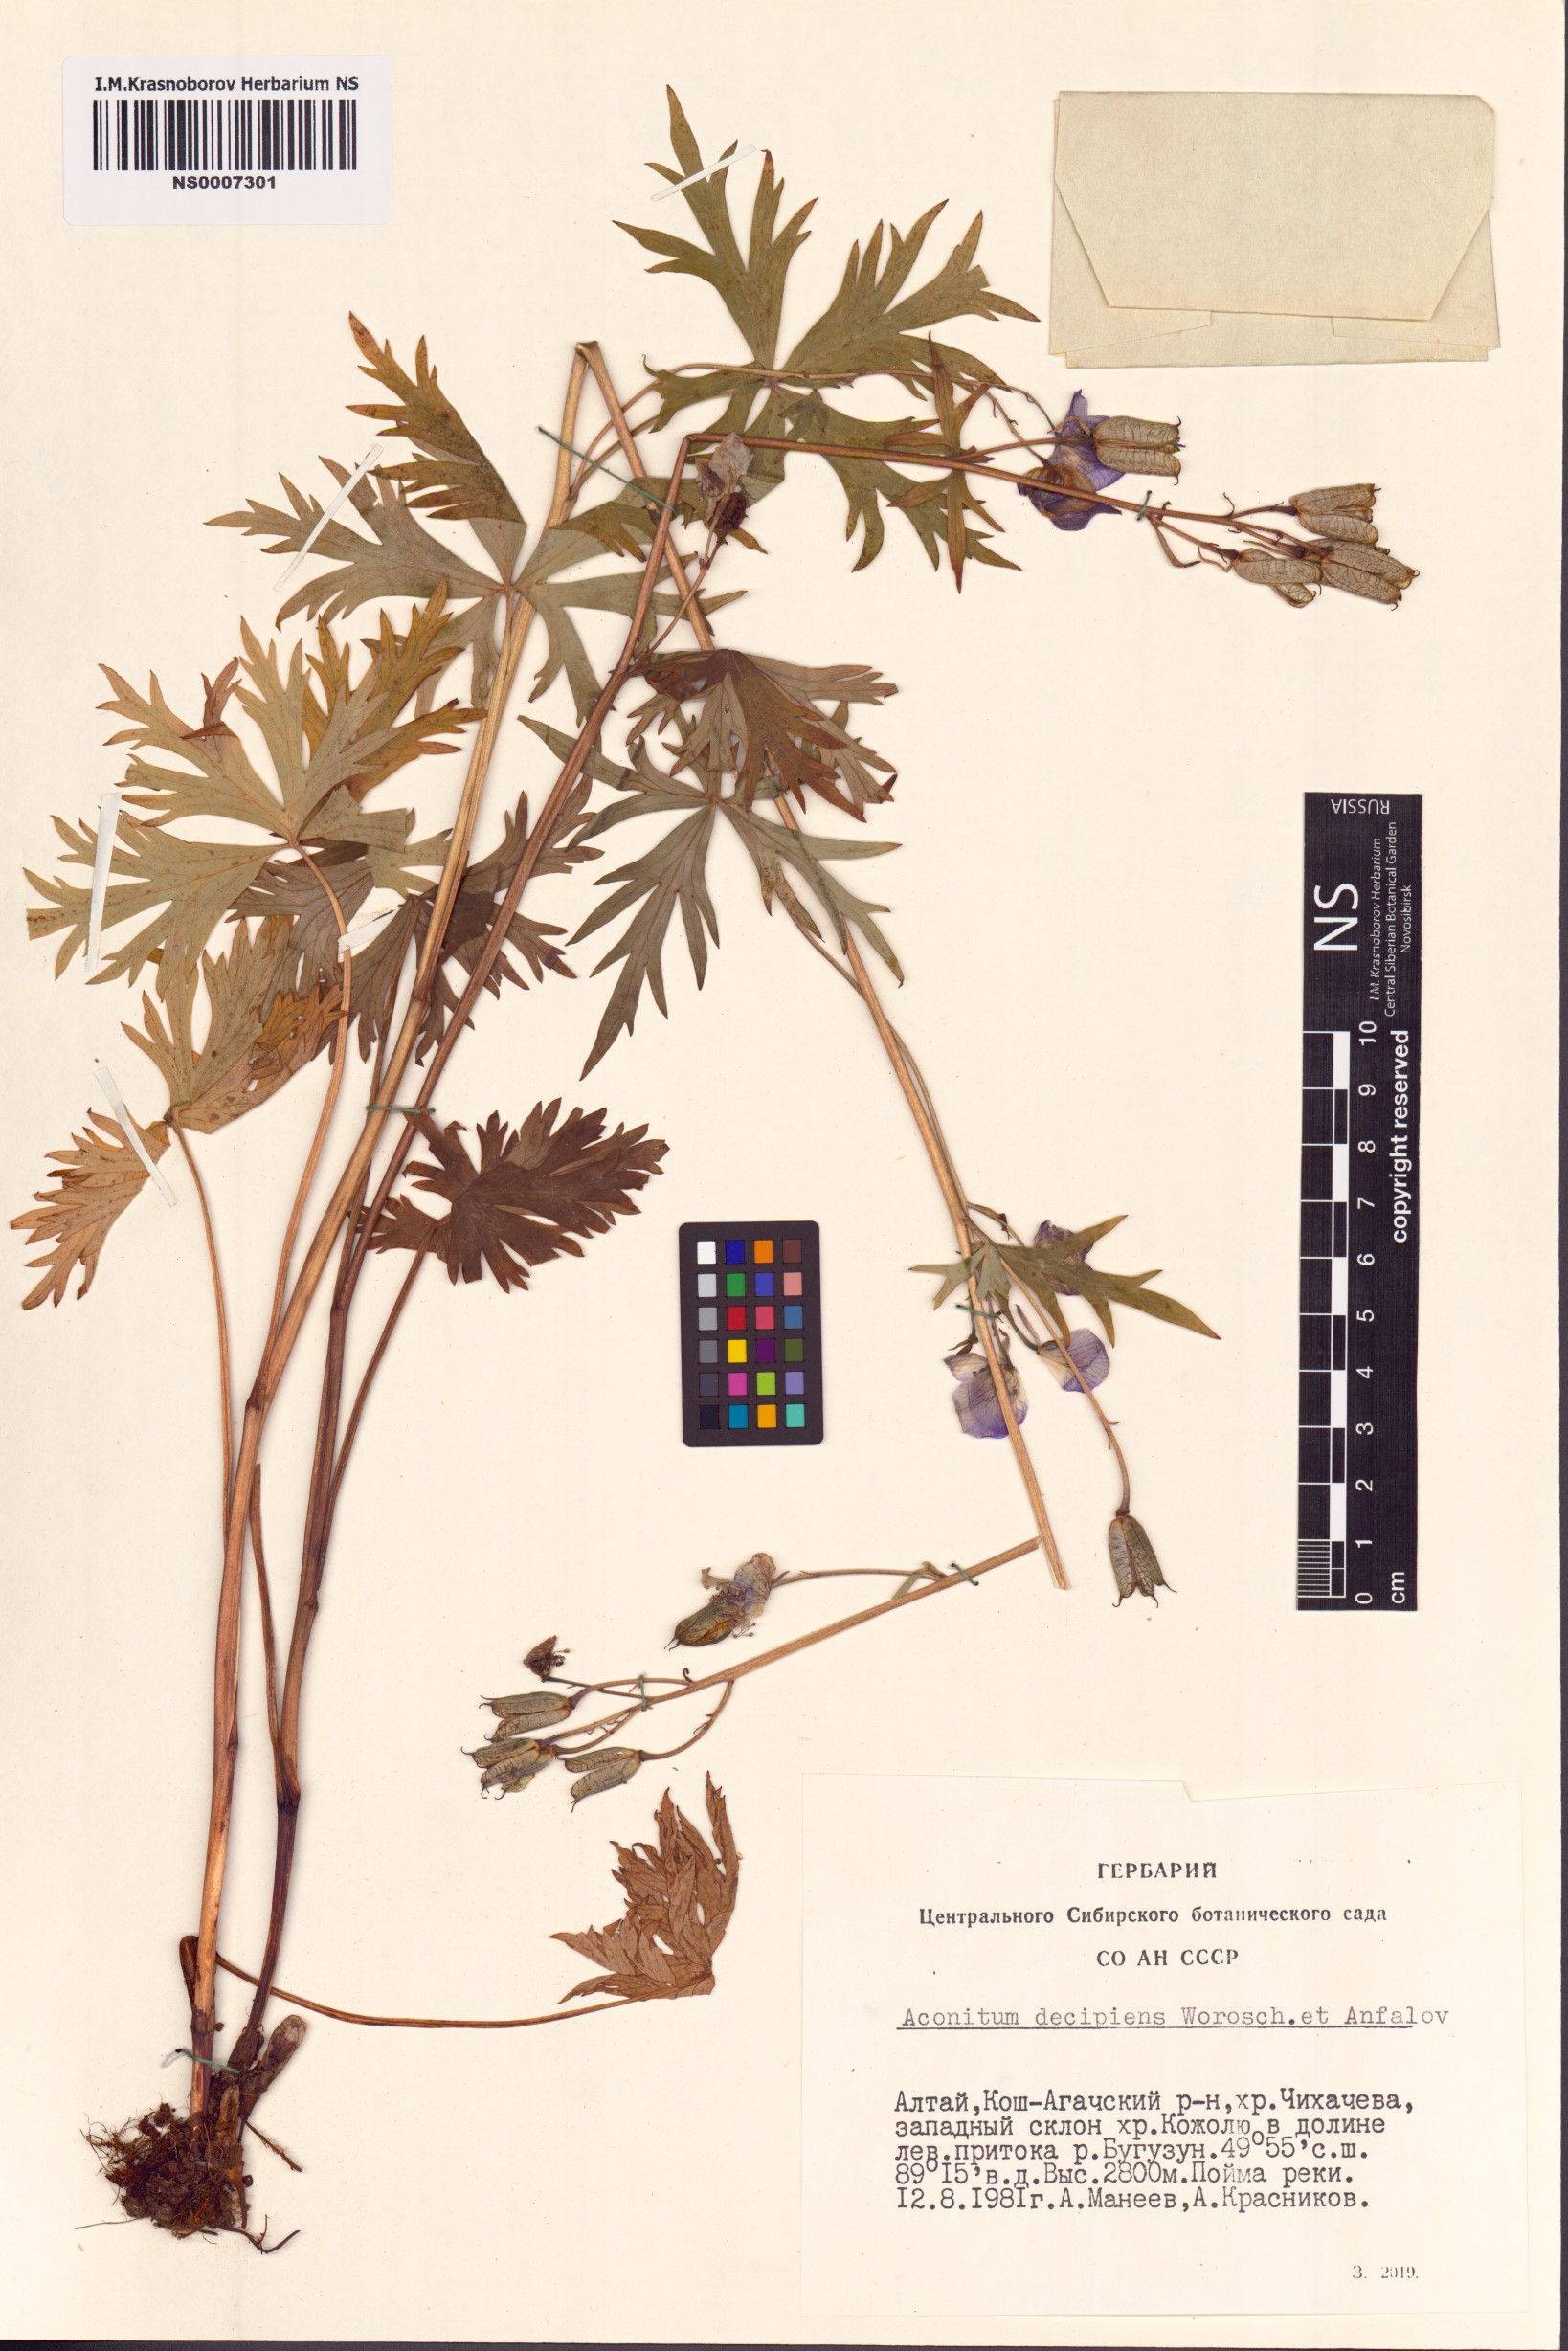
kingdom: Plantae
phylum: Tracheophyta
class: Magnoliopsida
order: Ranunculales
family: Ranunculaceae
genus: Aconitum
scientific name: Aconitum decipiens
